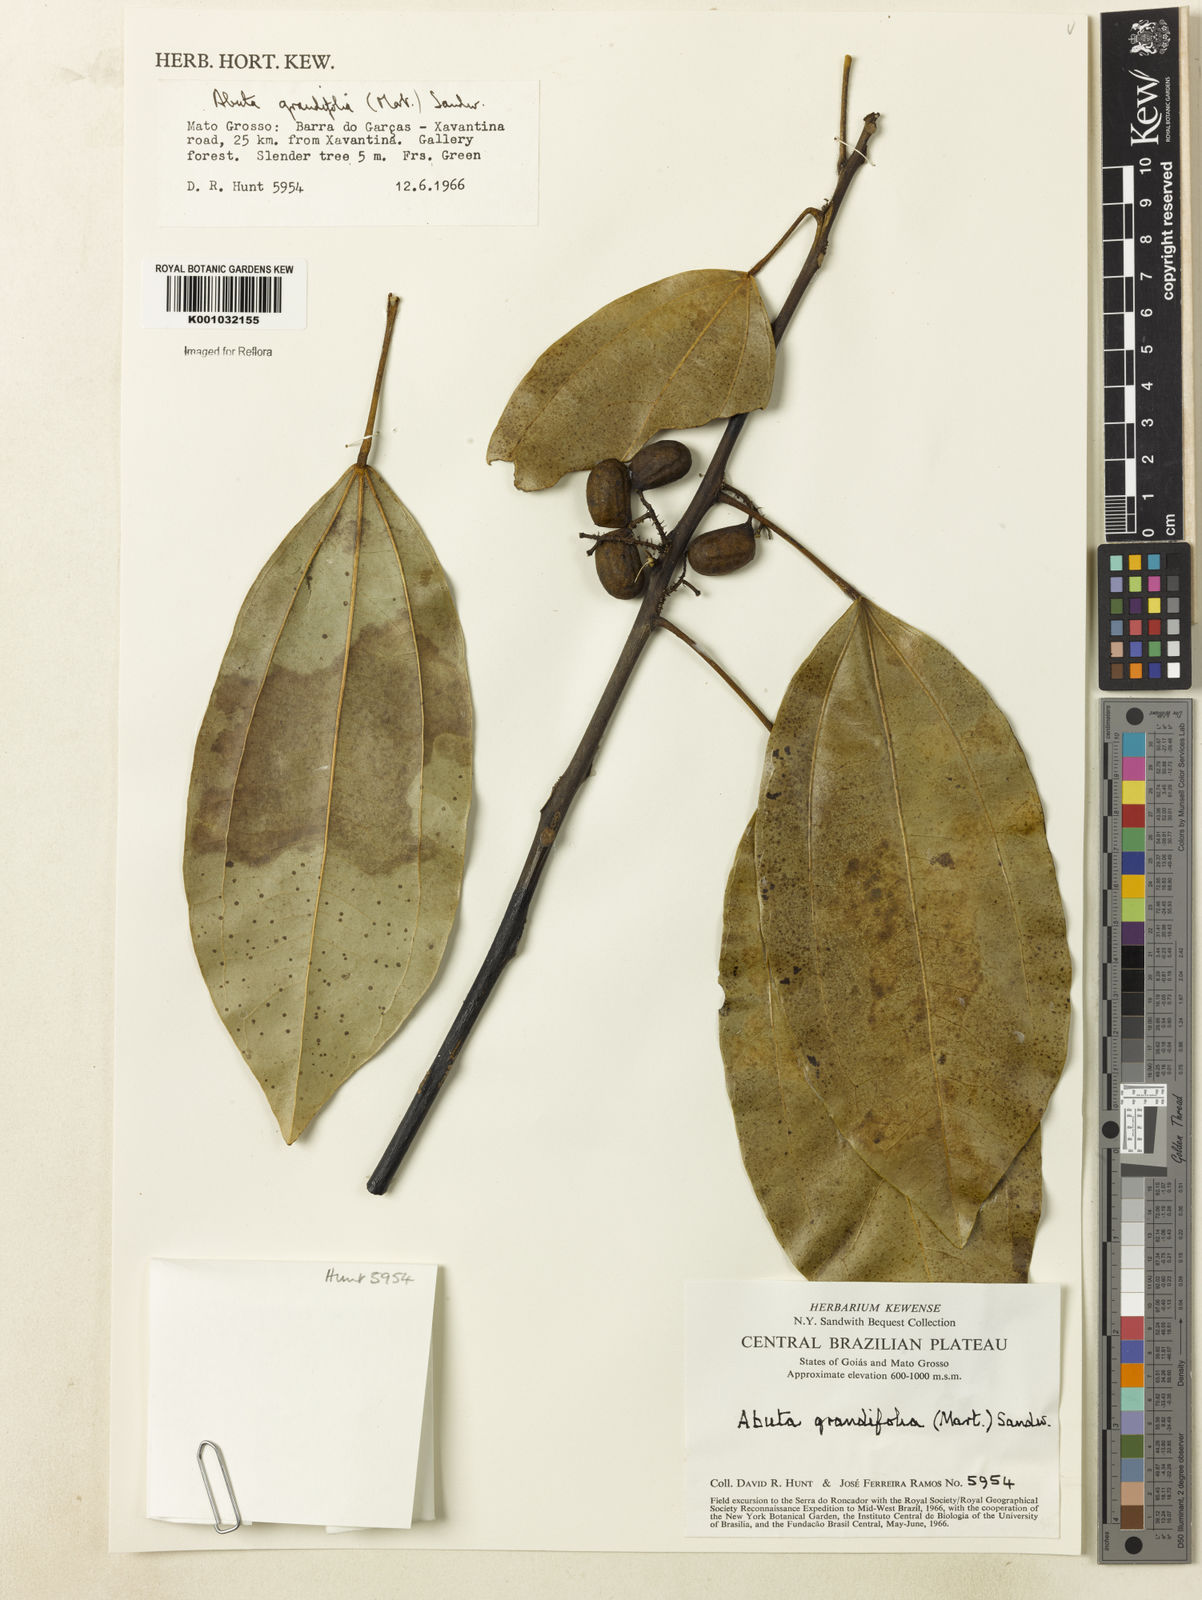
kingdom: Plantae
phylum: Tracheophyta
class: Magnoliopsida
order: Ranunculales
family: Menispermaceae
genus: Abuta
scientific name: Abuta grandifolia
